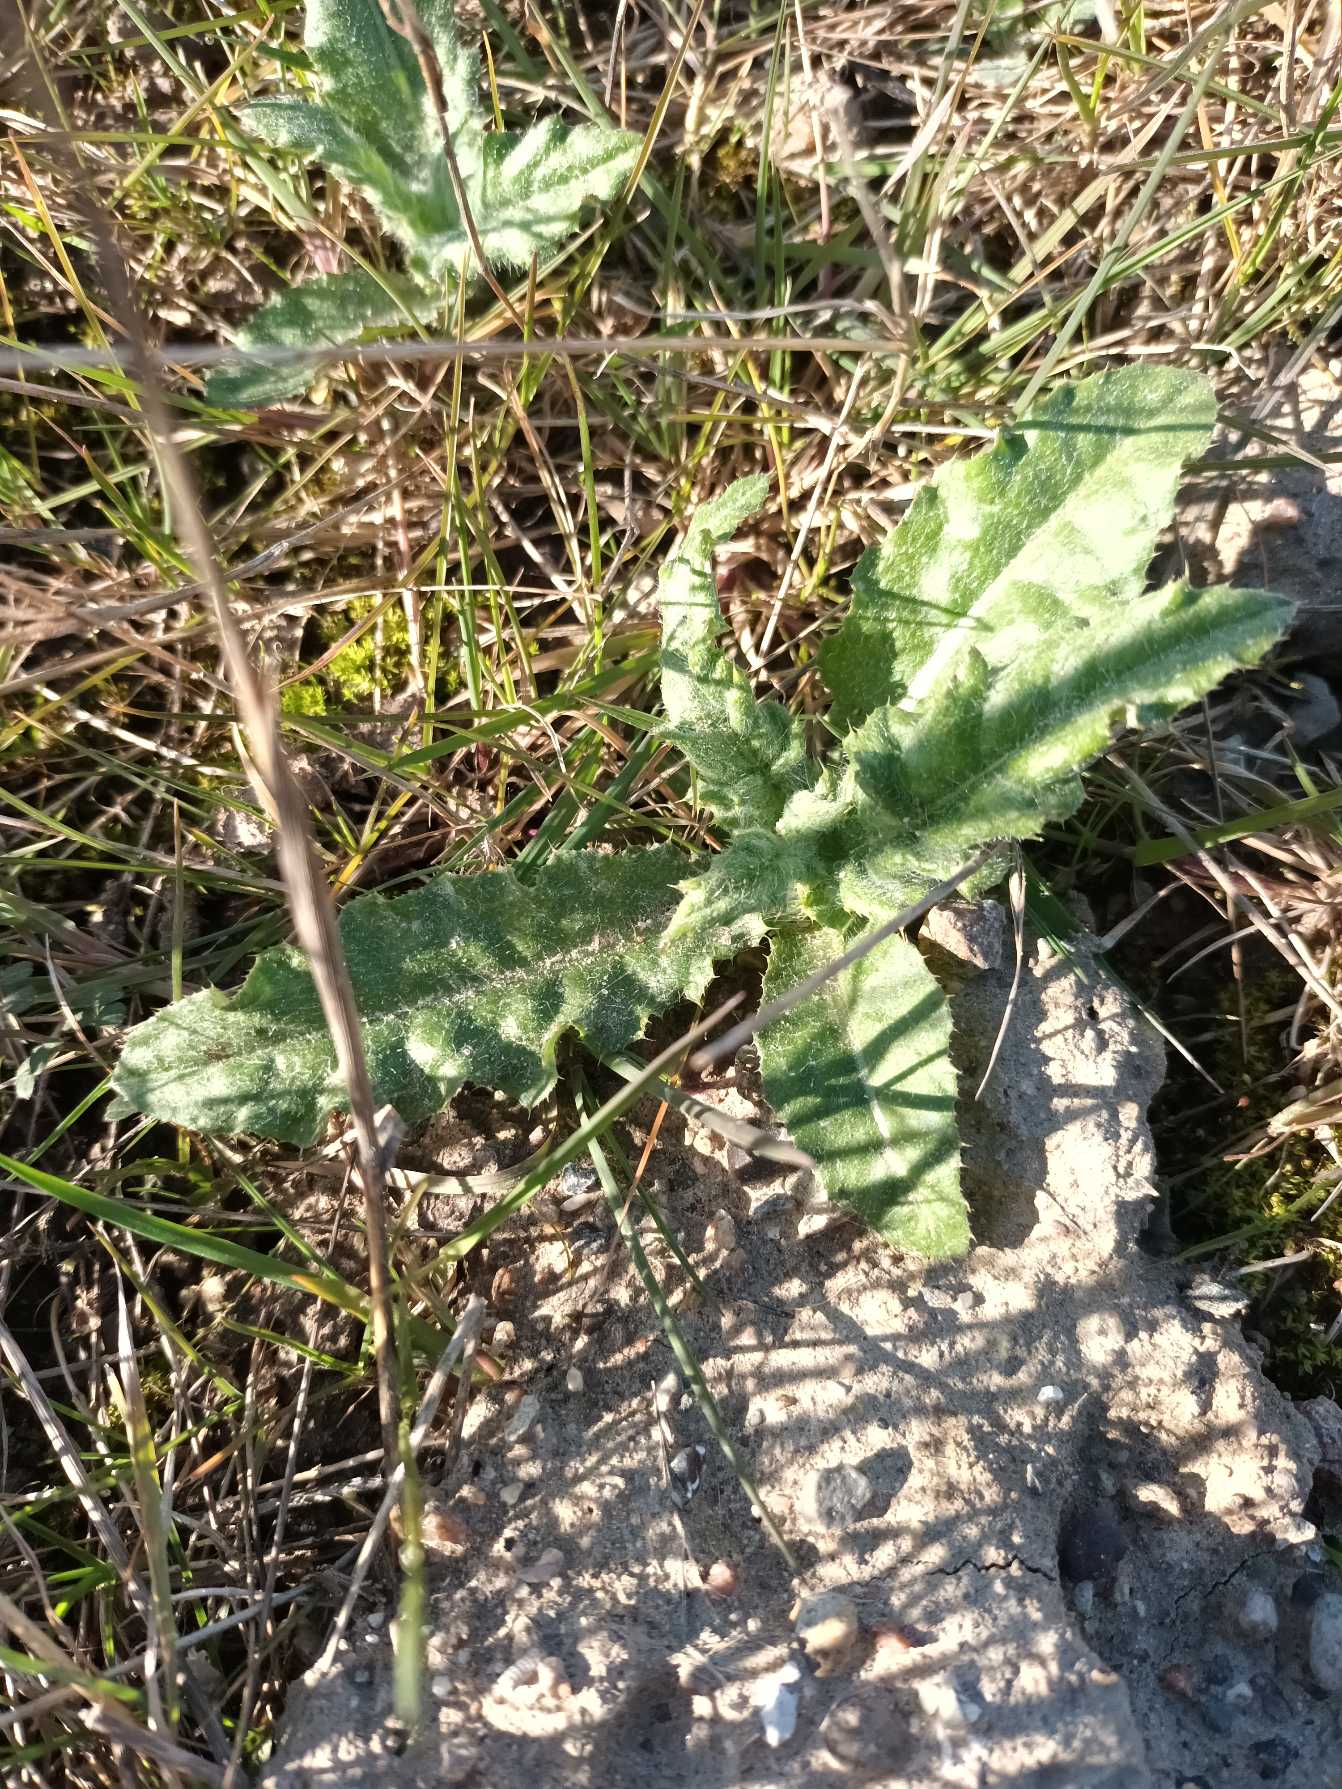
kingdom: Plantae
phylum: Tracheophyta
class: Magnoliopsida
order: Asterales
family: Asteraceae
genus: Cirsium
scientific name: Cirsium arvense
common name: Ager-tidsel
